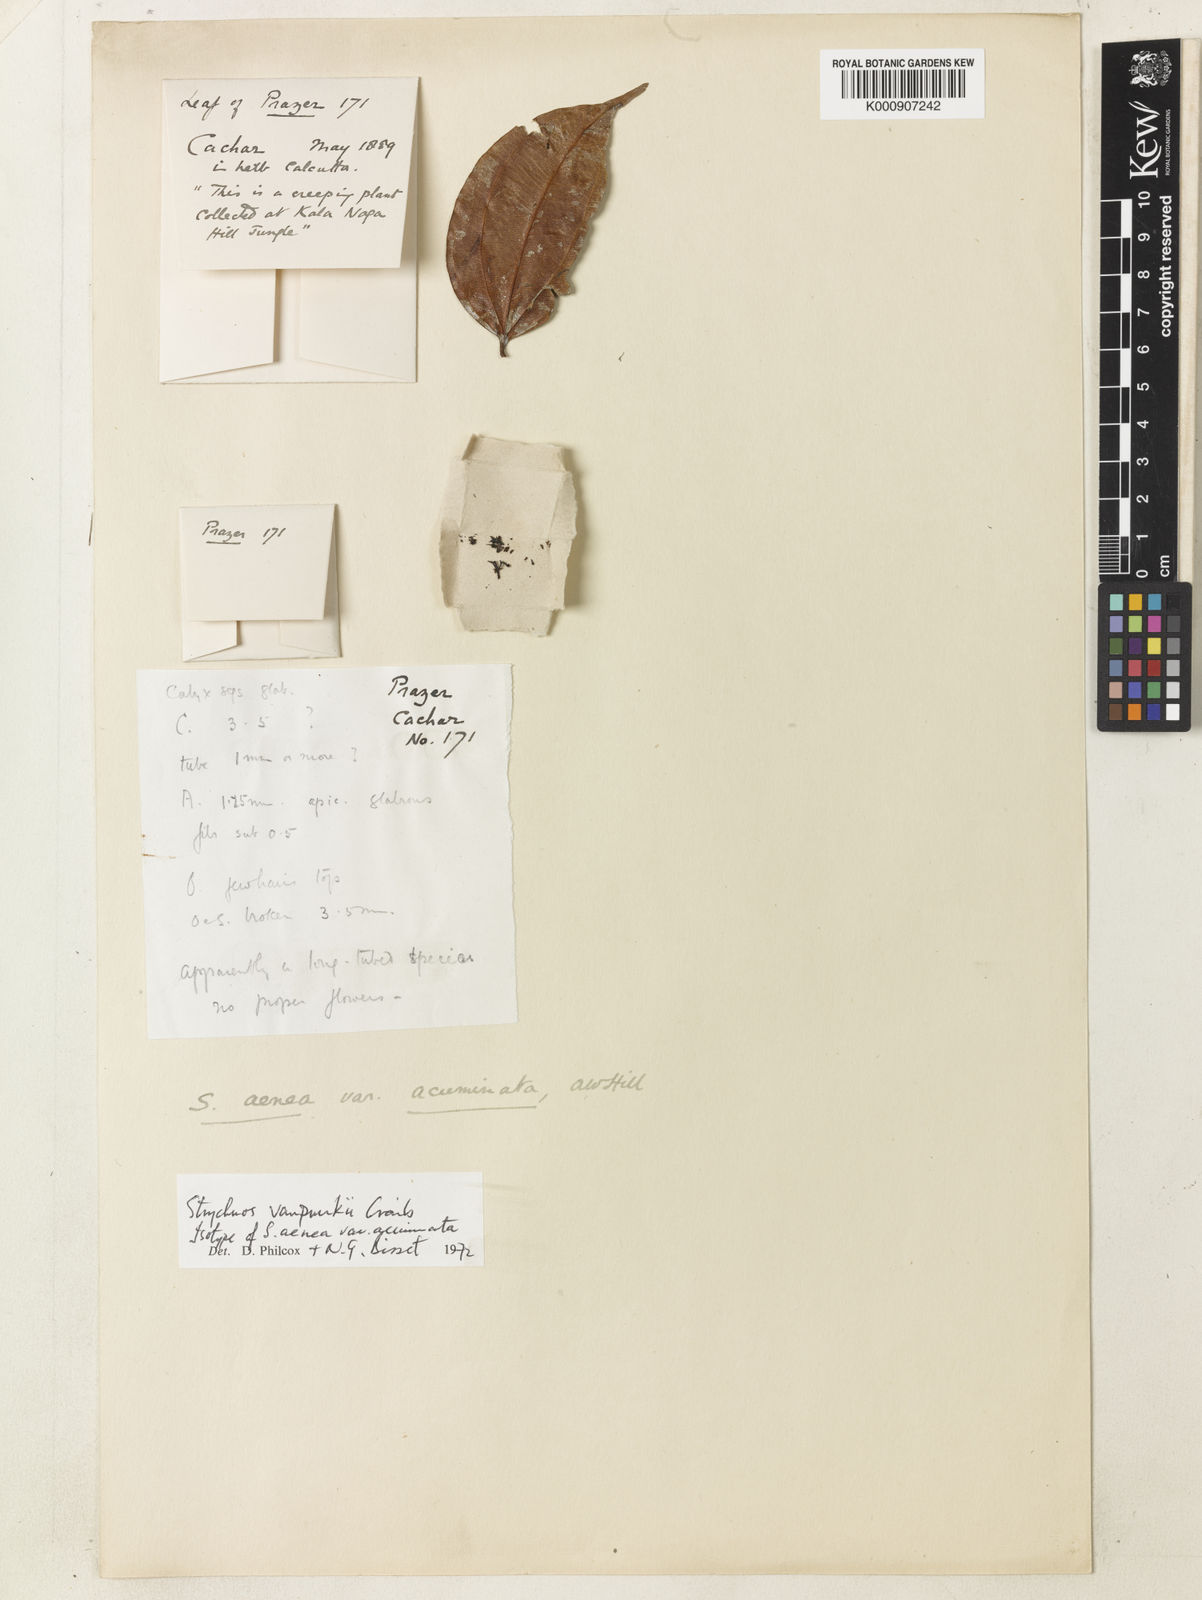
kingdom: Plantae
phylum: Tracheophyta
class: Magnoliopsida
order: Gentianales
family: Loganiaceae
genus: Strychnos
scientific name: Strychnos vanprukii
